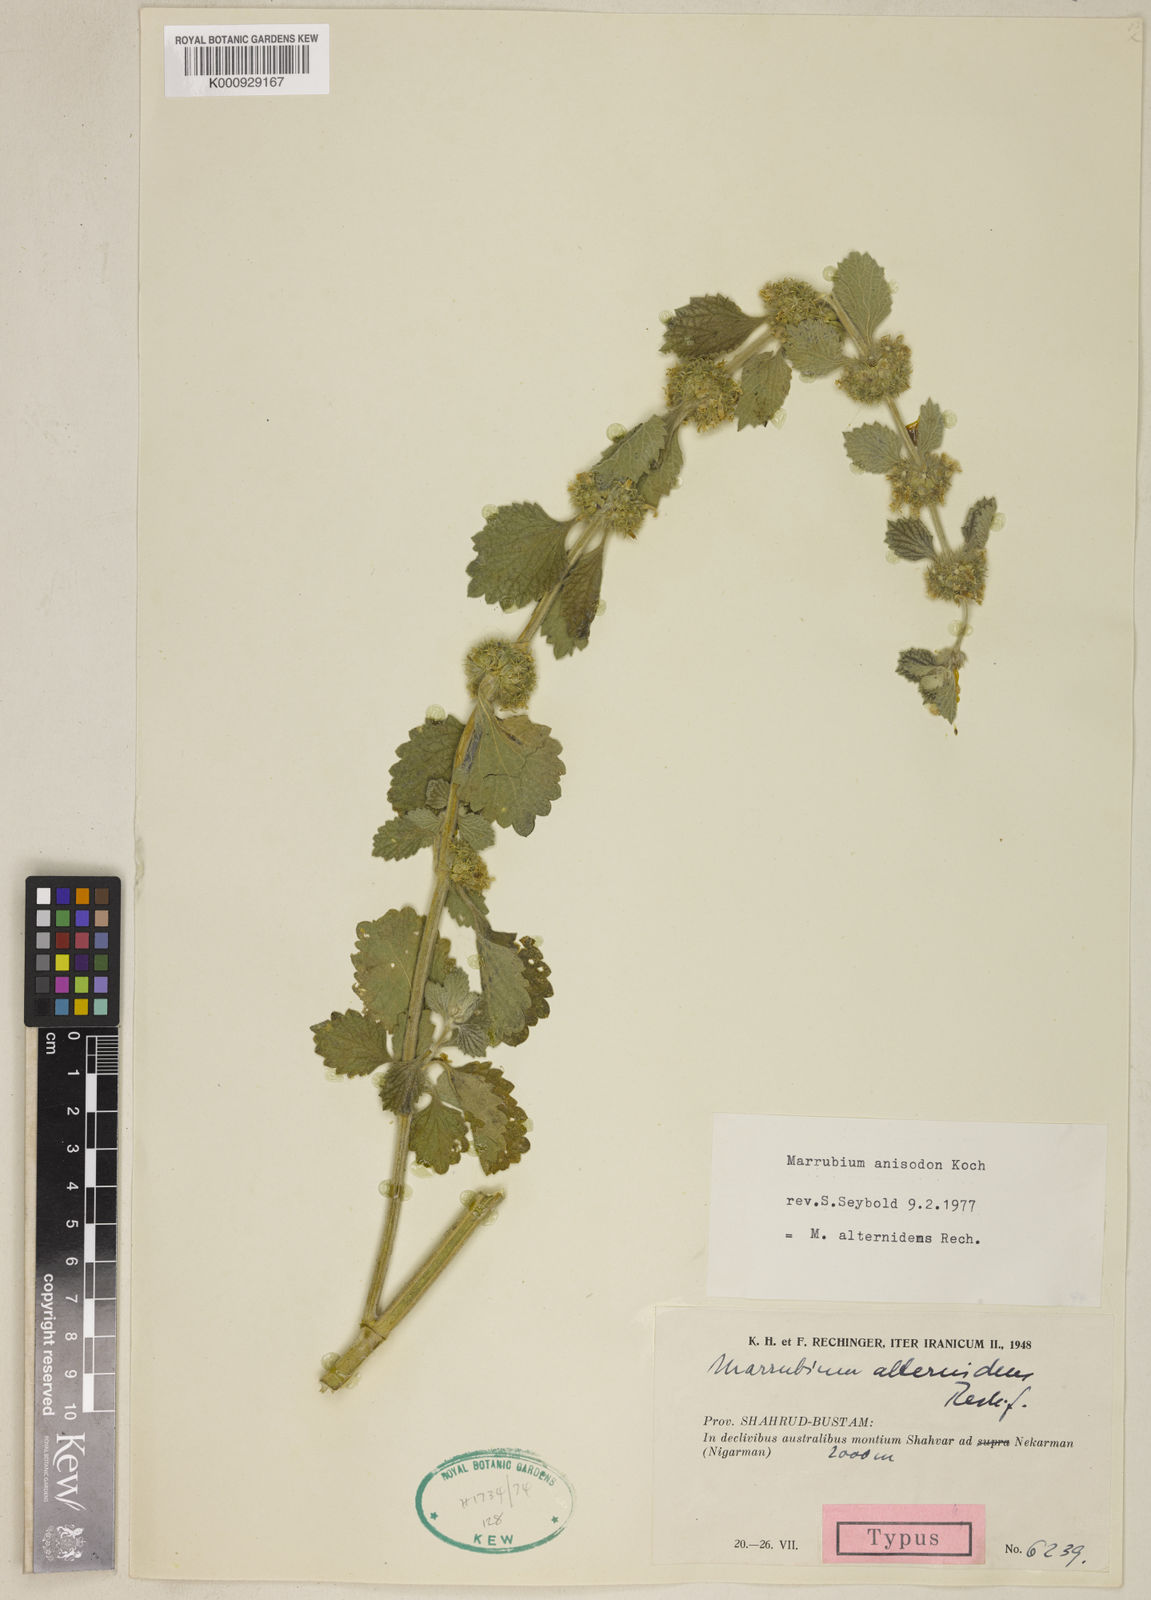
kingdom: Plantae
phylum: Tracheophyta
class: Magnoliopsida
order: Lamiales
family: Lamiaceae
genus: Marrubium
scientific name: Marrubium anisodon
